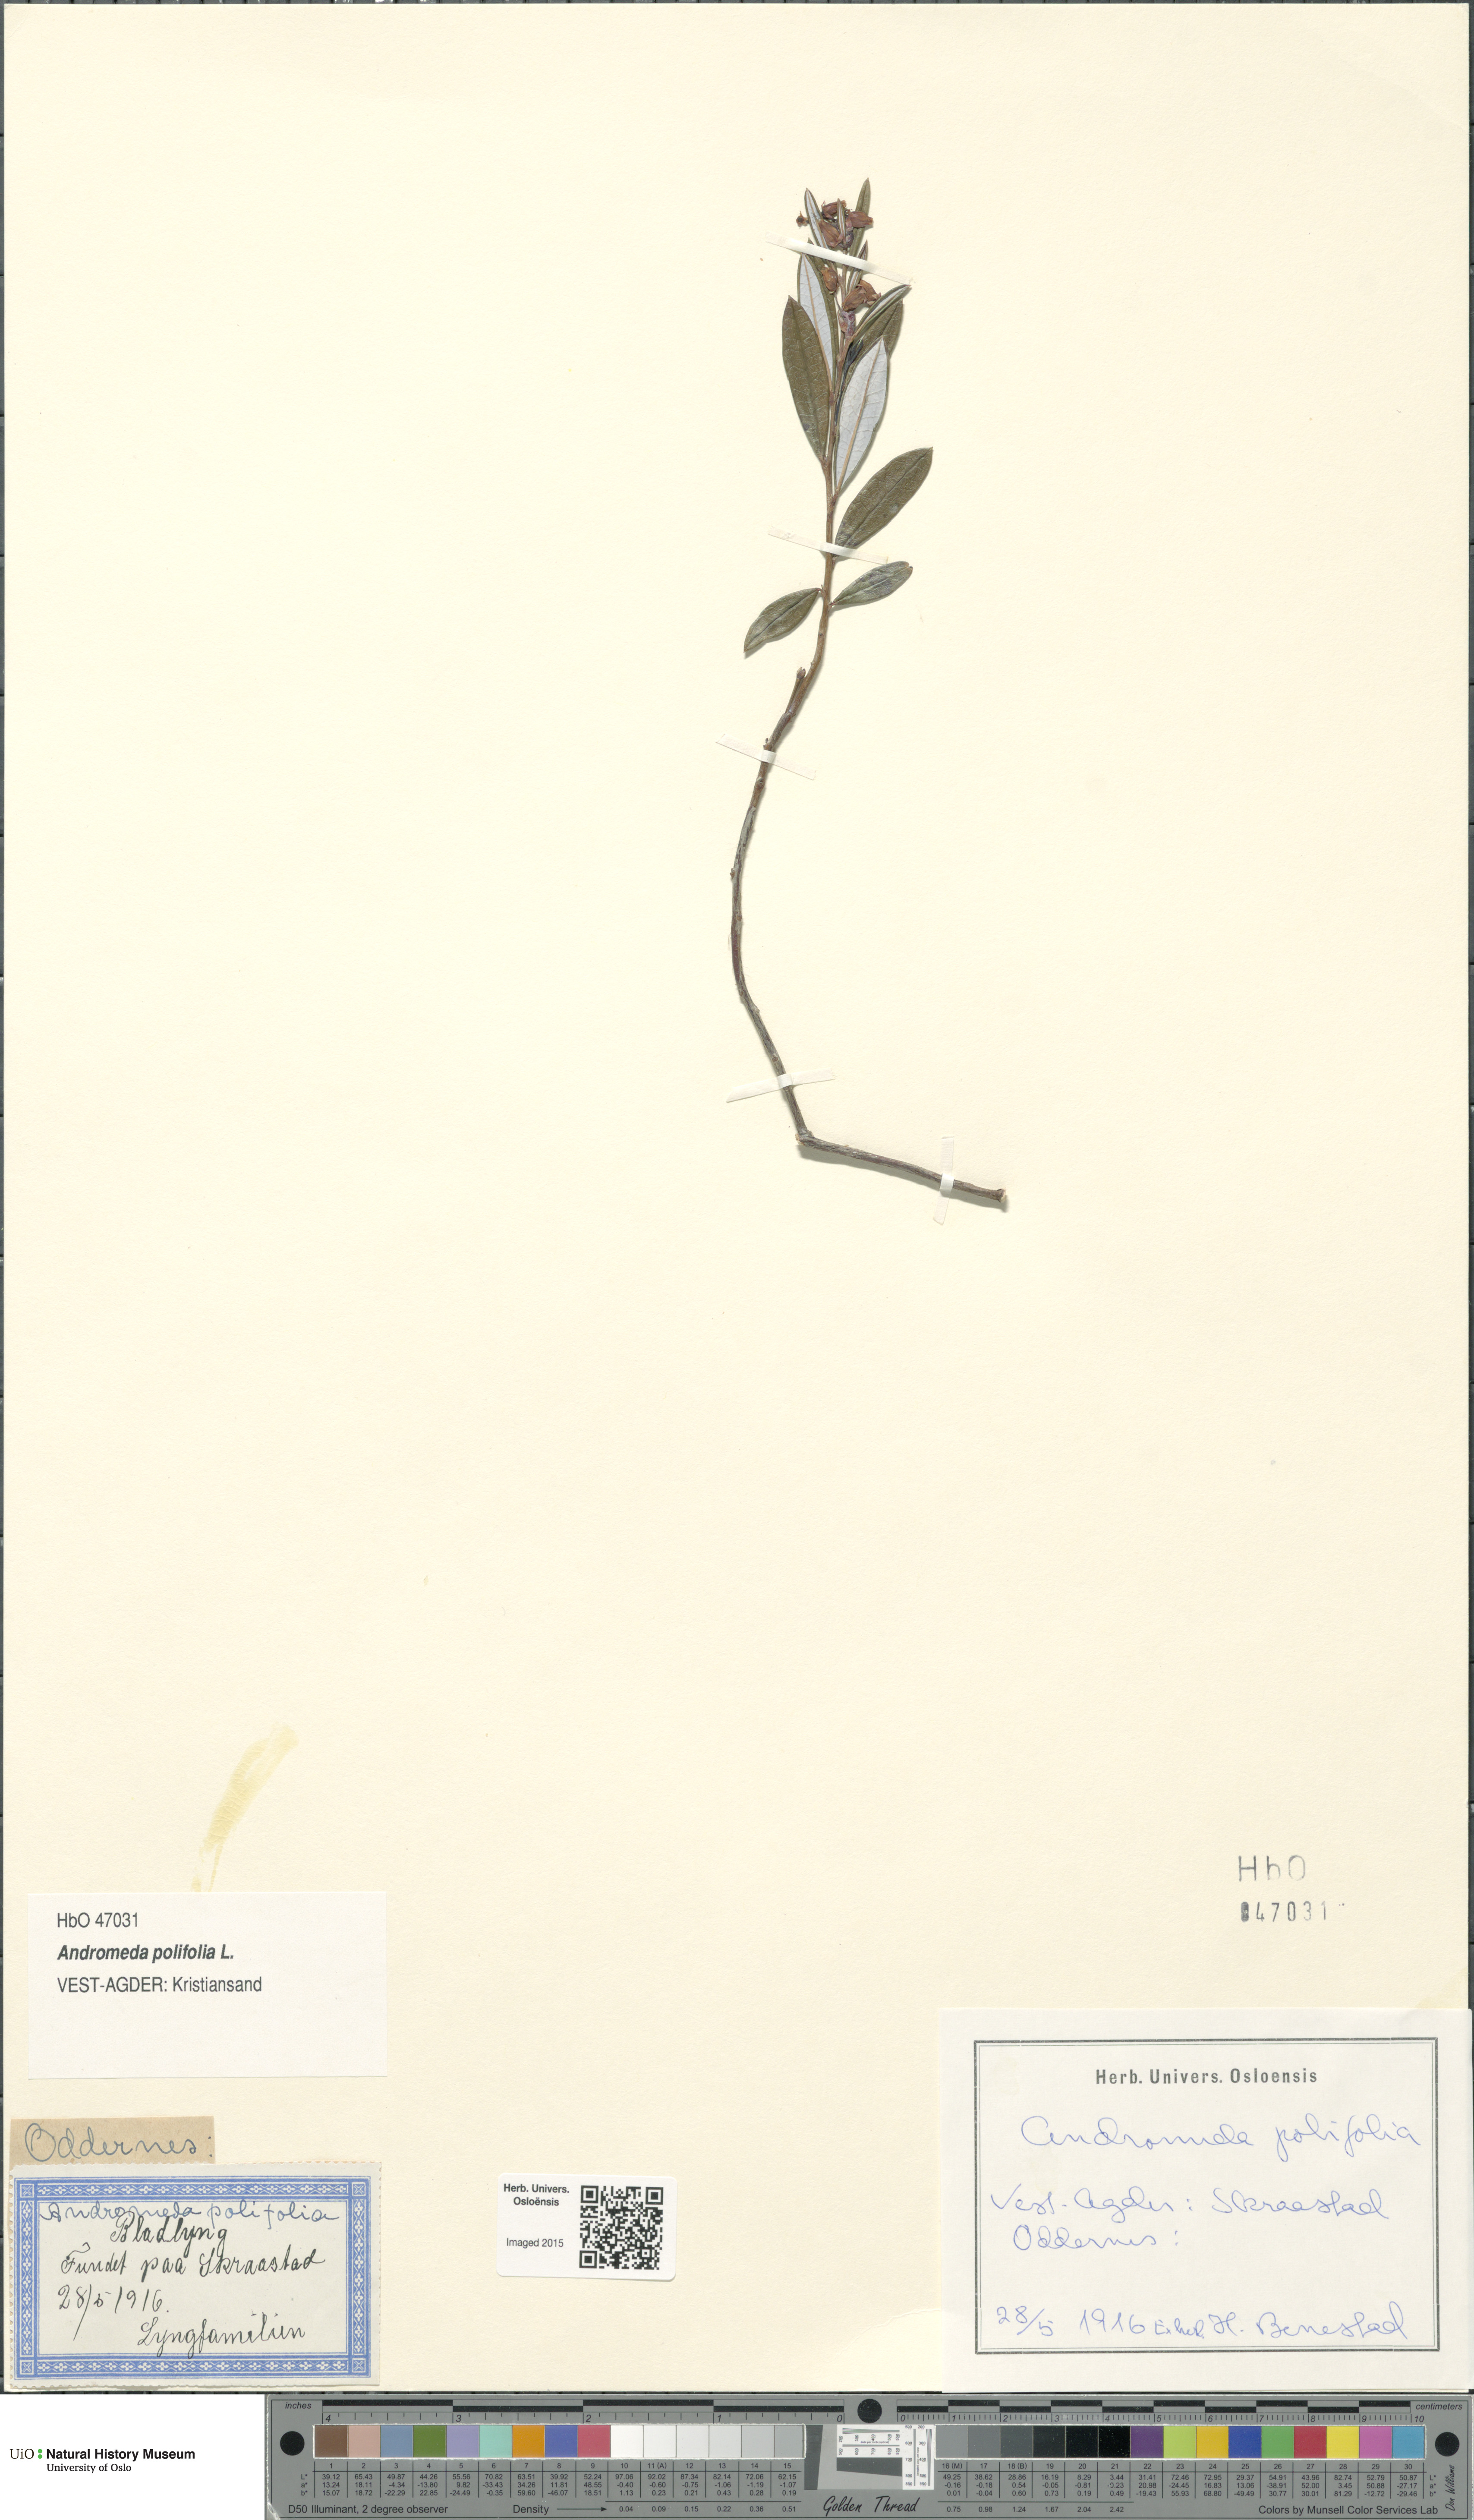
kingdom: Plantae
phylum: Tracheophyta
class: Magnoliopsida
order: Ericales
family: Ericaceae
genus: Andromeda
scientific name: Andromeda polifolia
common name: Bog-rosemary
